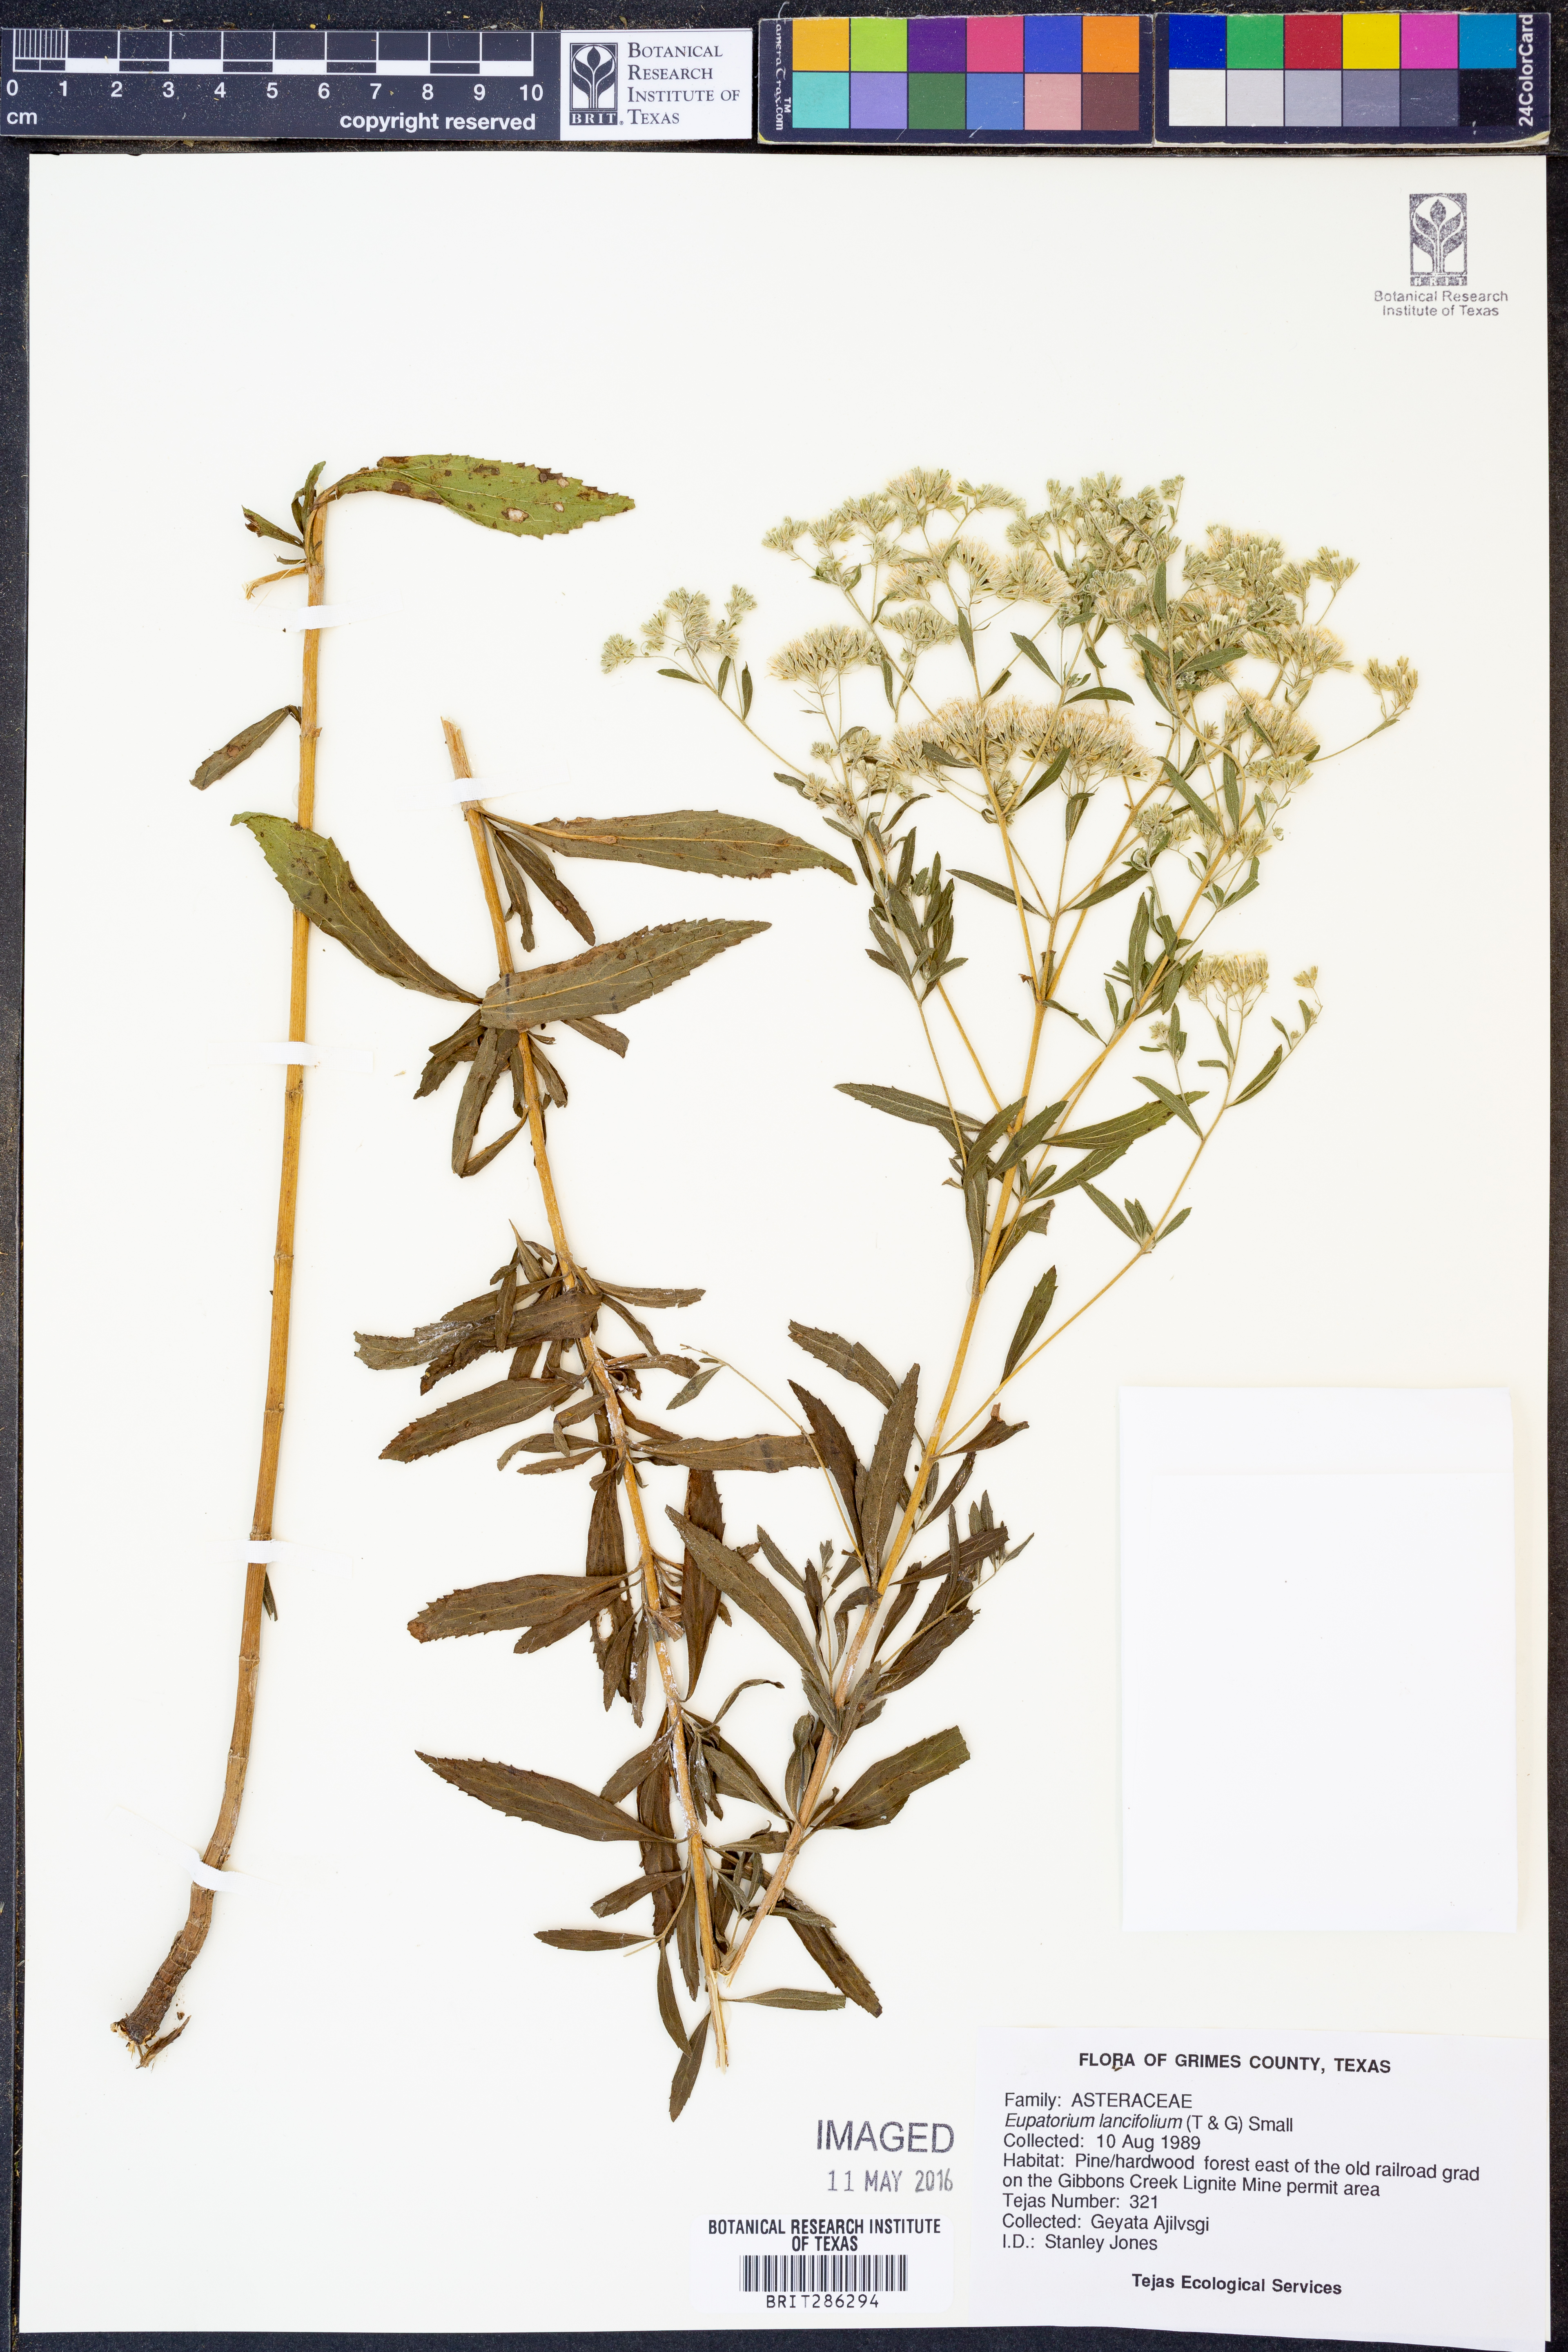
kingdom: Plantae
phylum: Tracheophyta
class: Magnoliopsida
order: Asterales
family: Asteraceae
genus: Eupatorium
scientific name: Eupatorium lancifolium
